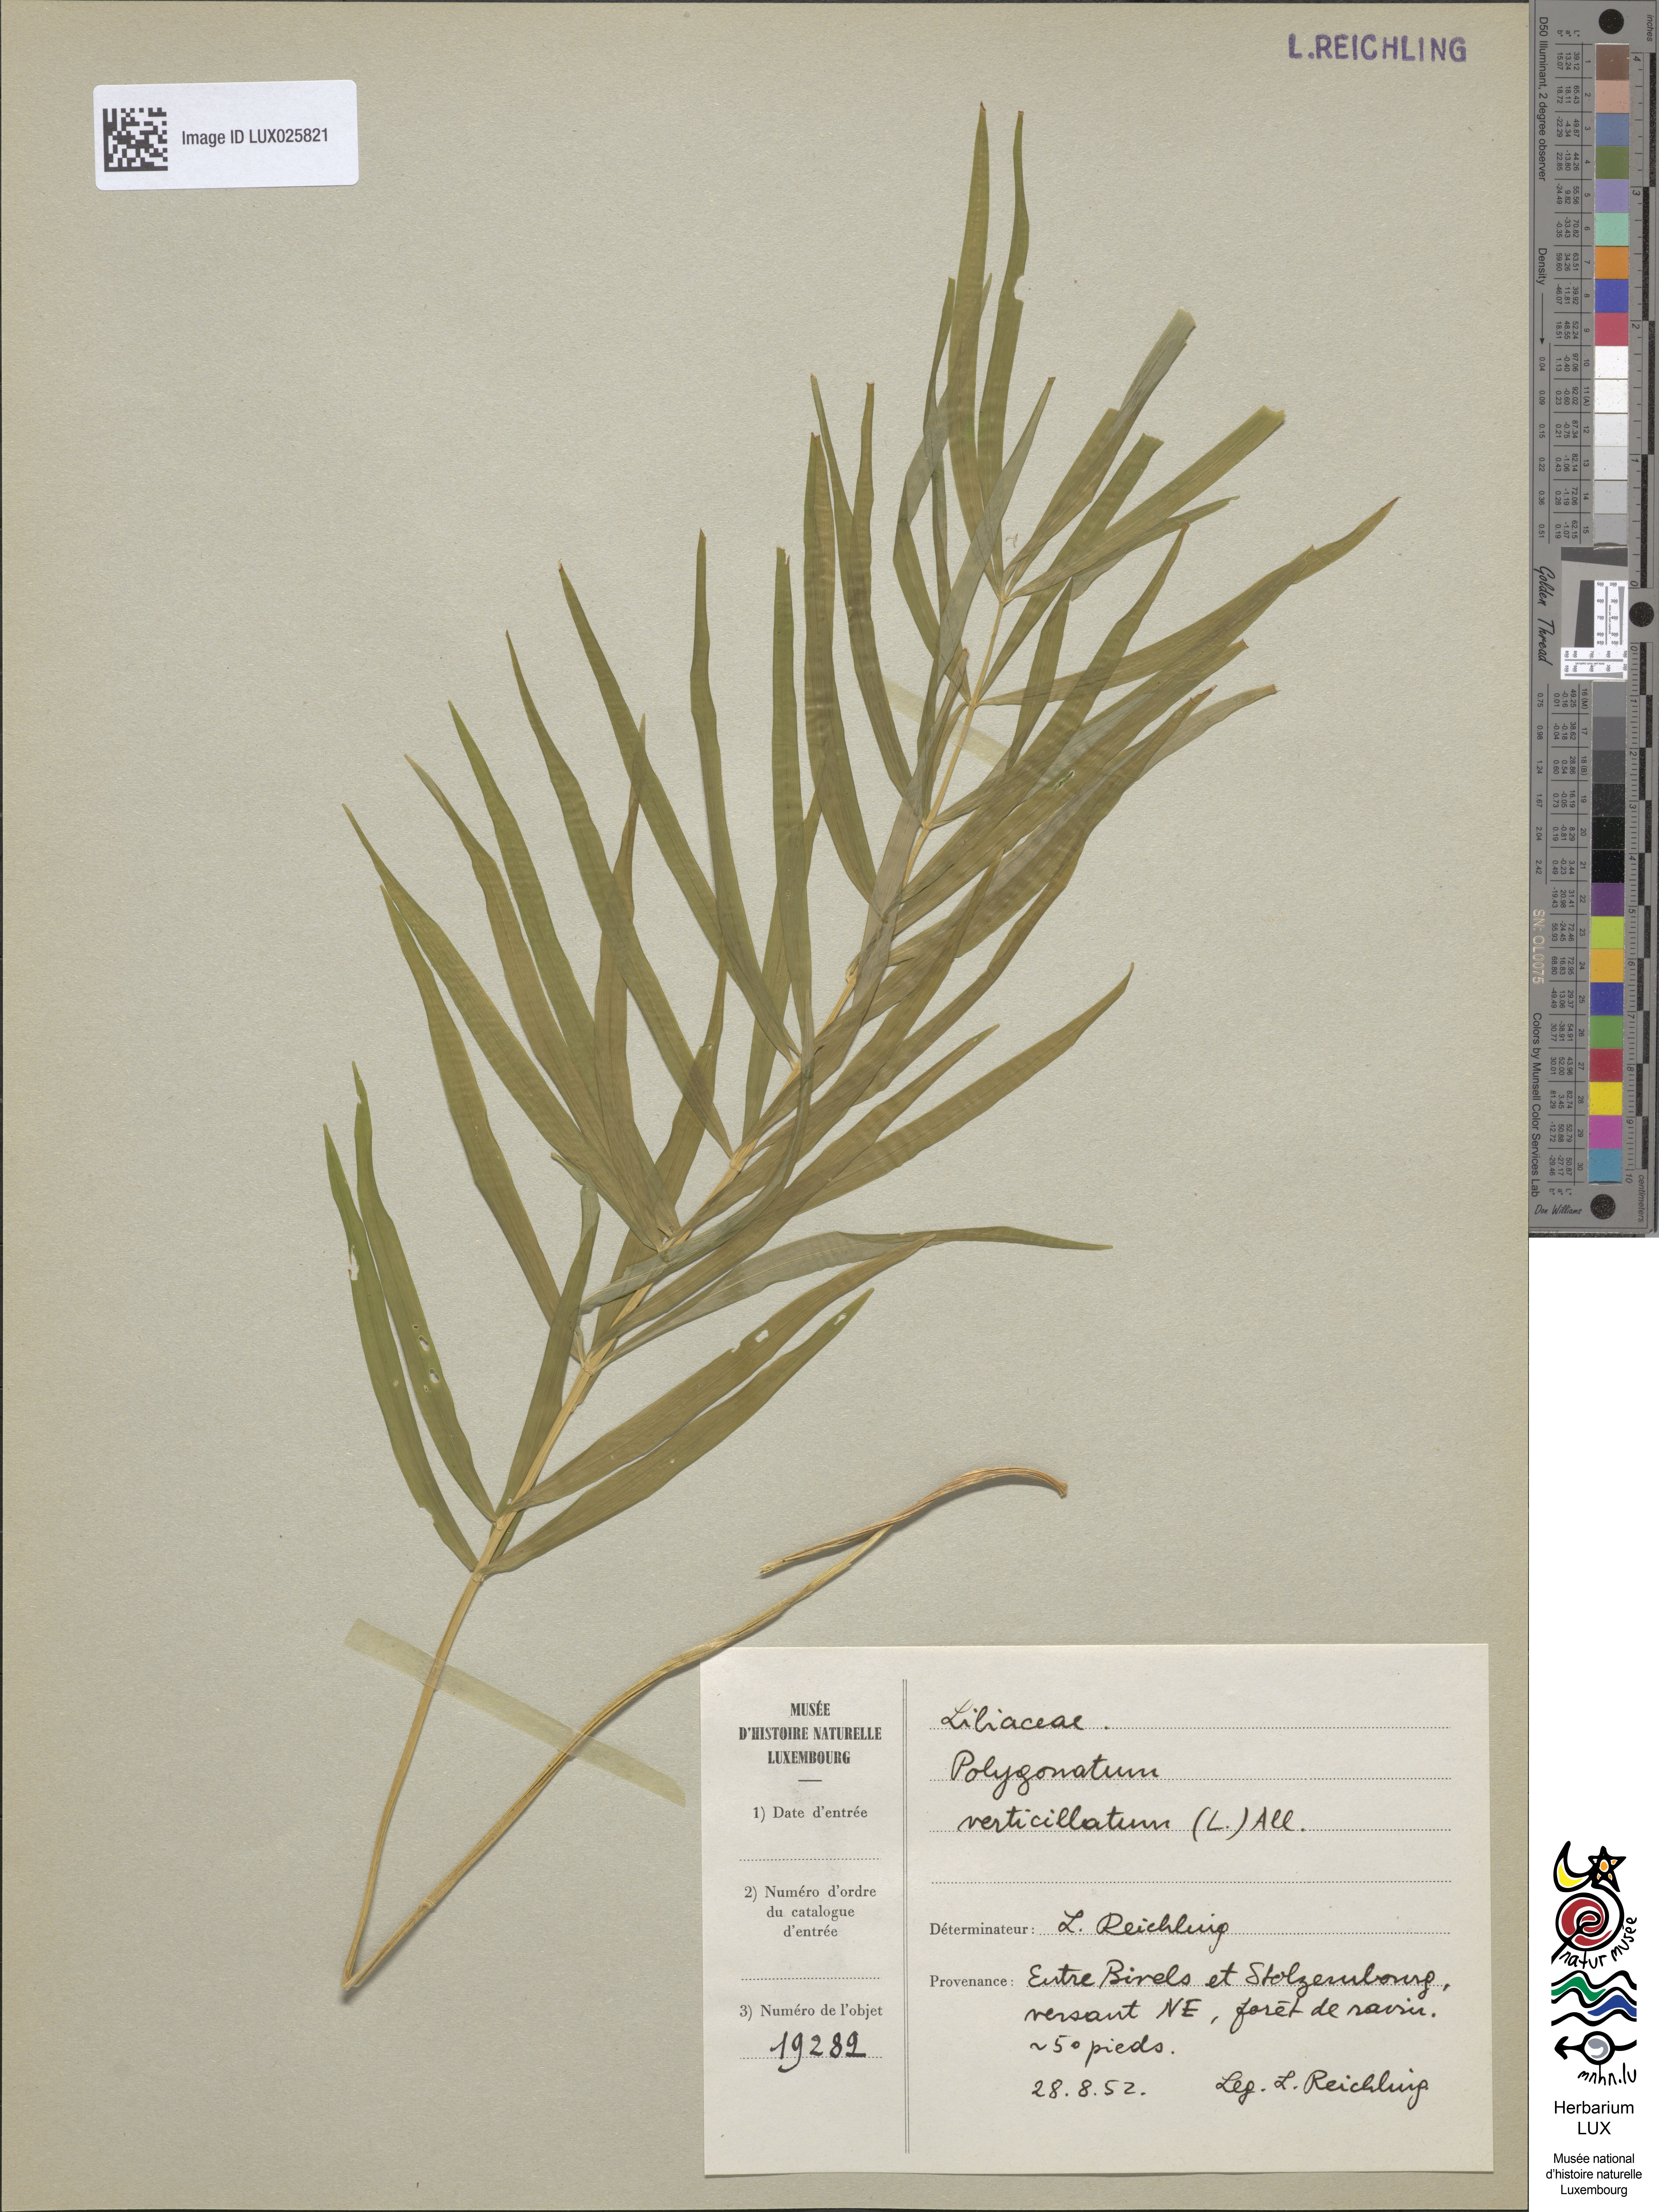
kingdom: Plantae
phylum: Tracheophyta
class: Liliopsida
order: Asparagales
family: Asparagaceae
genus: Polygonatum
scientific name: Polygonatum verticillatum
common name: Whorled solomon's-seal
